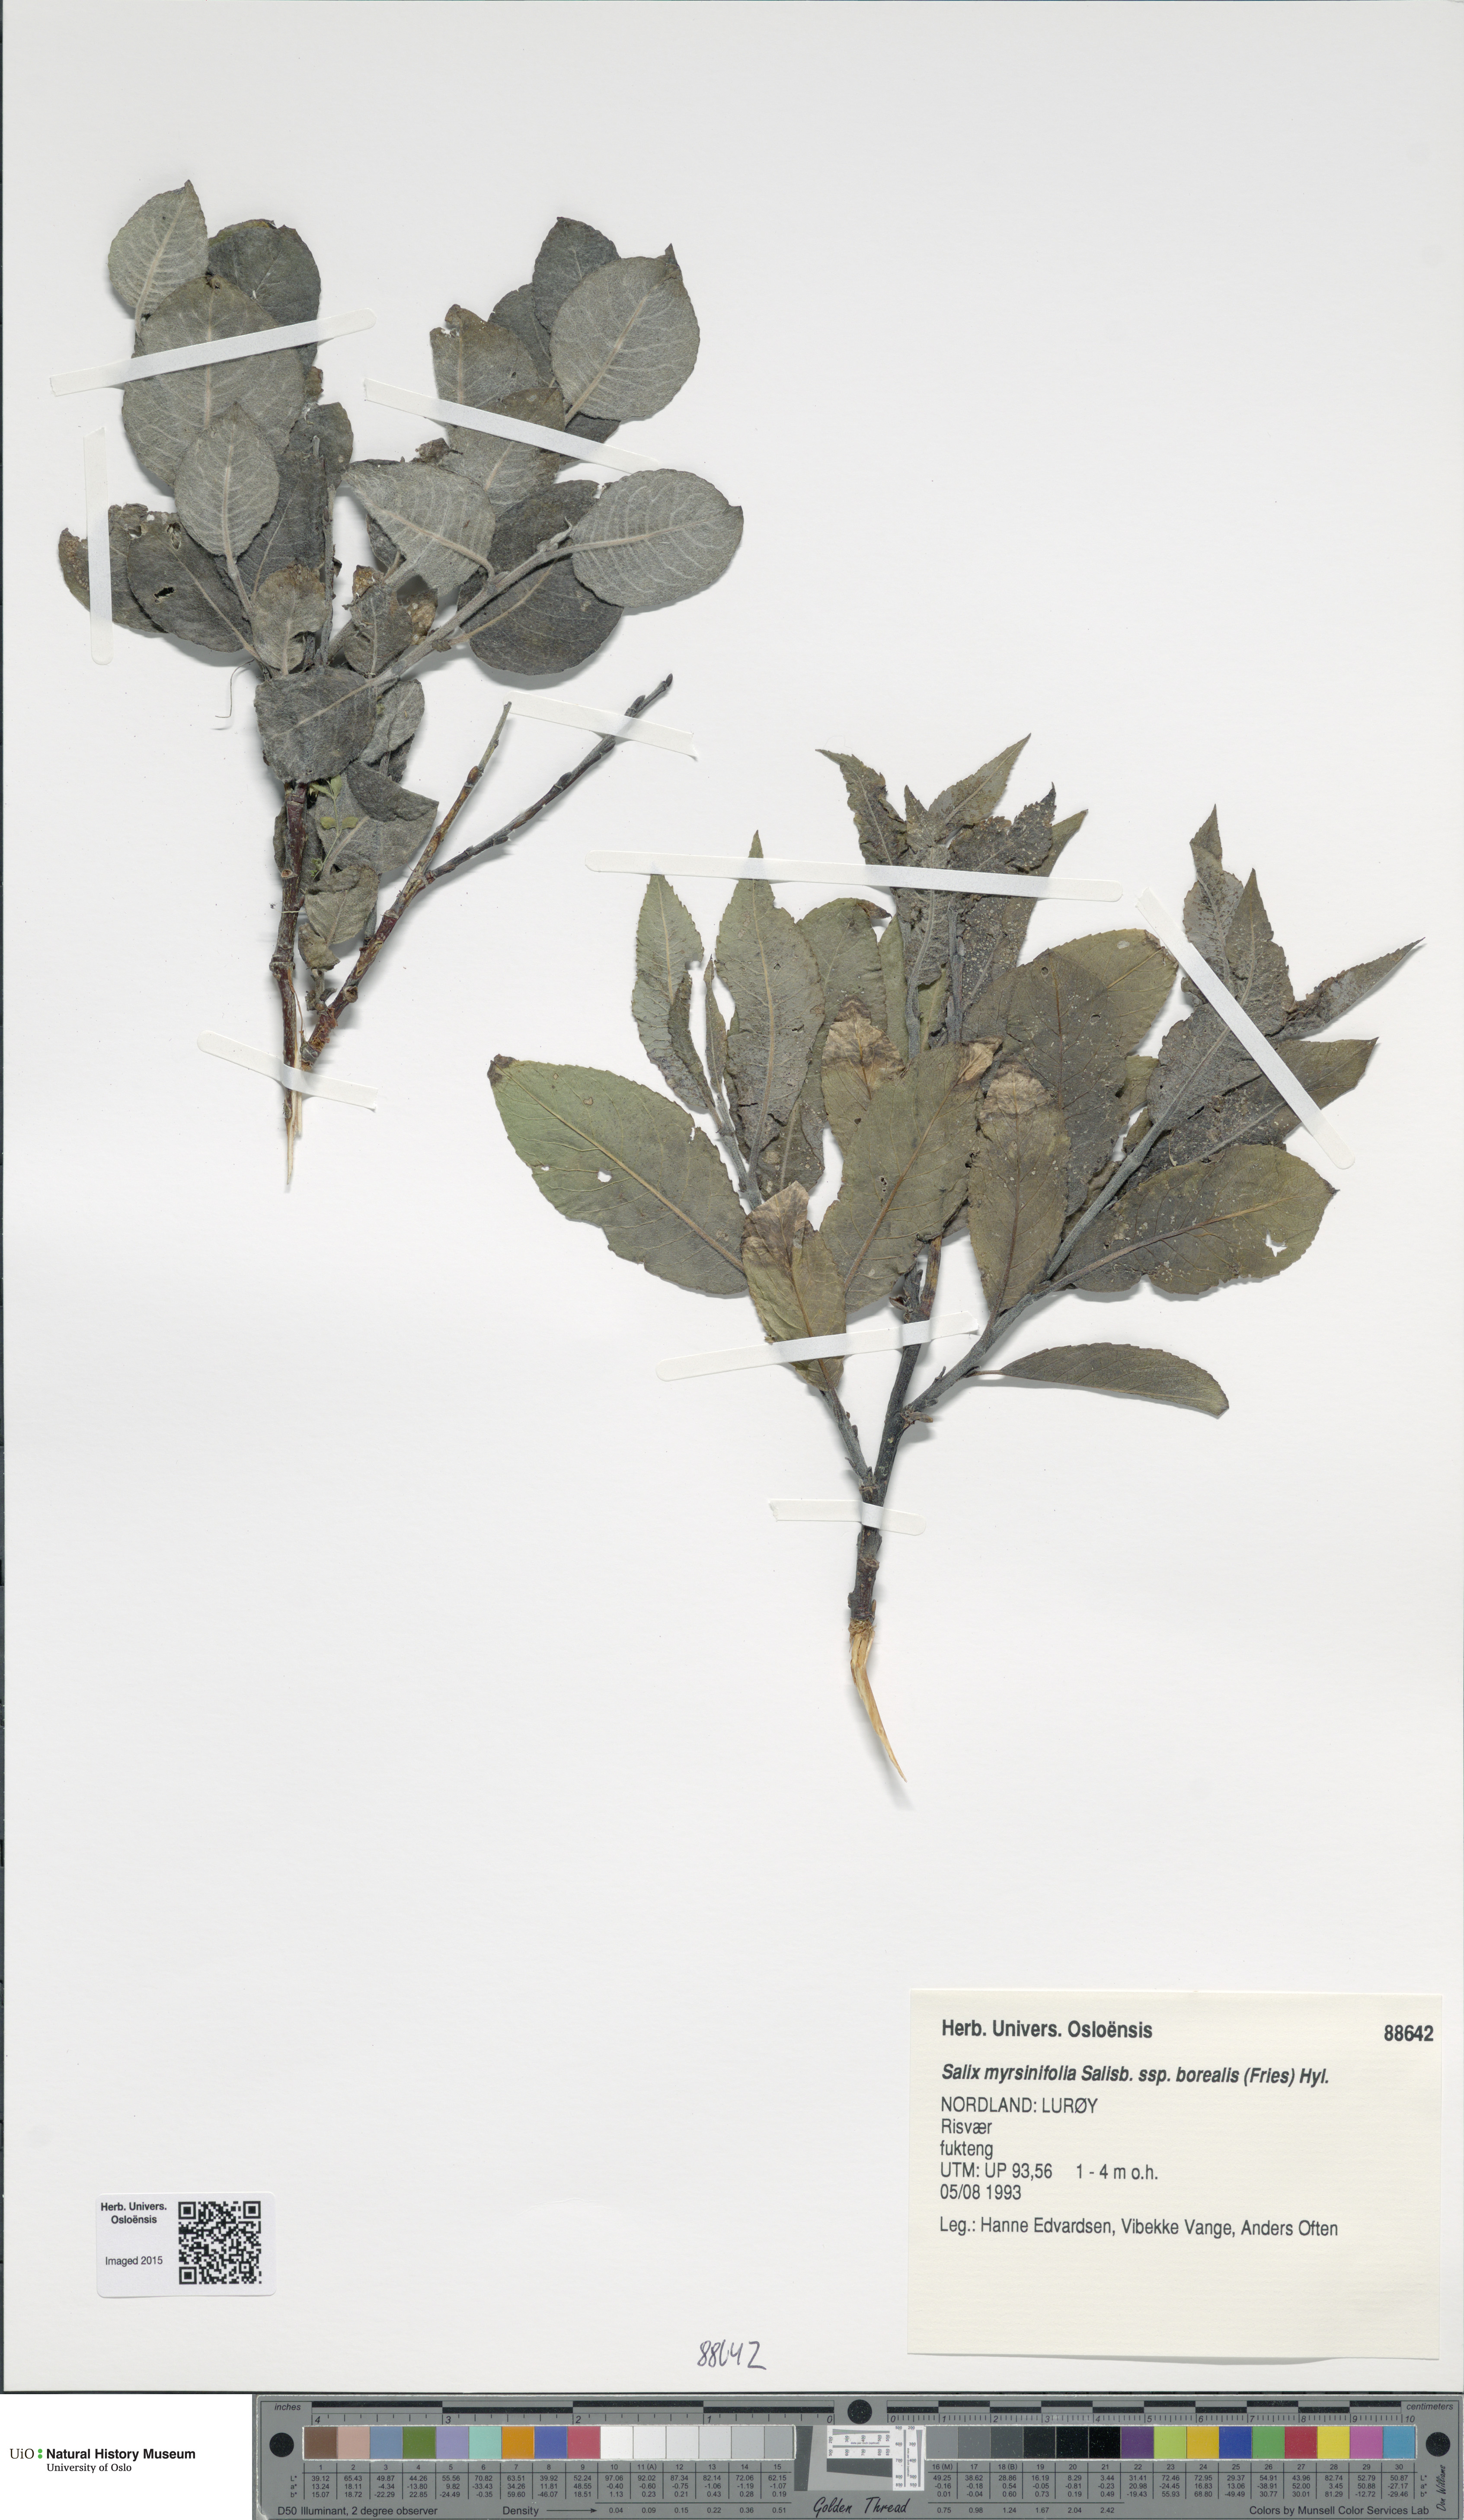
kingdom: Plantae
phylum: Tracheophyta
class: Magnoliopsida
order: Malpighiales
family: Salicaceae
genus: Salix
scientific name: Salix myrsinifolia
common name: Dark-leaved willow
